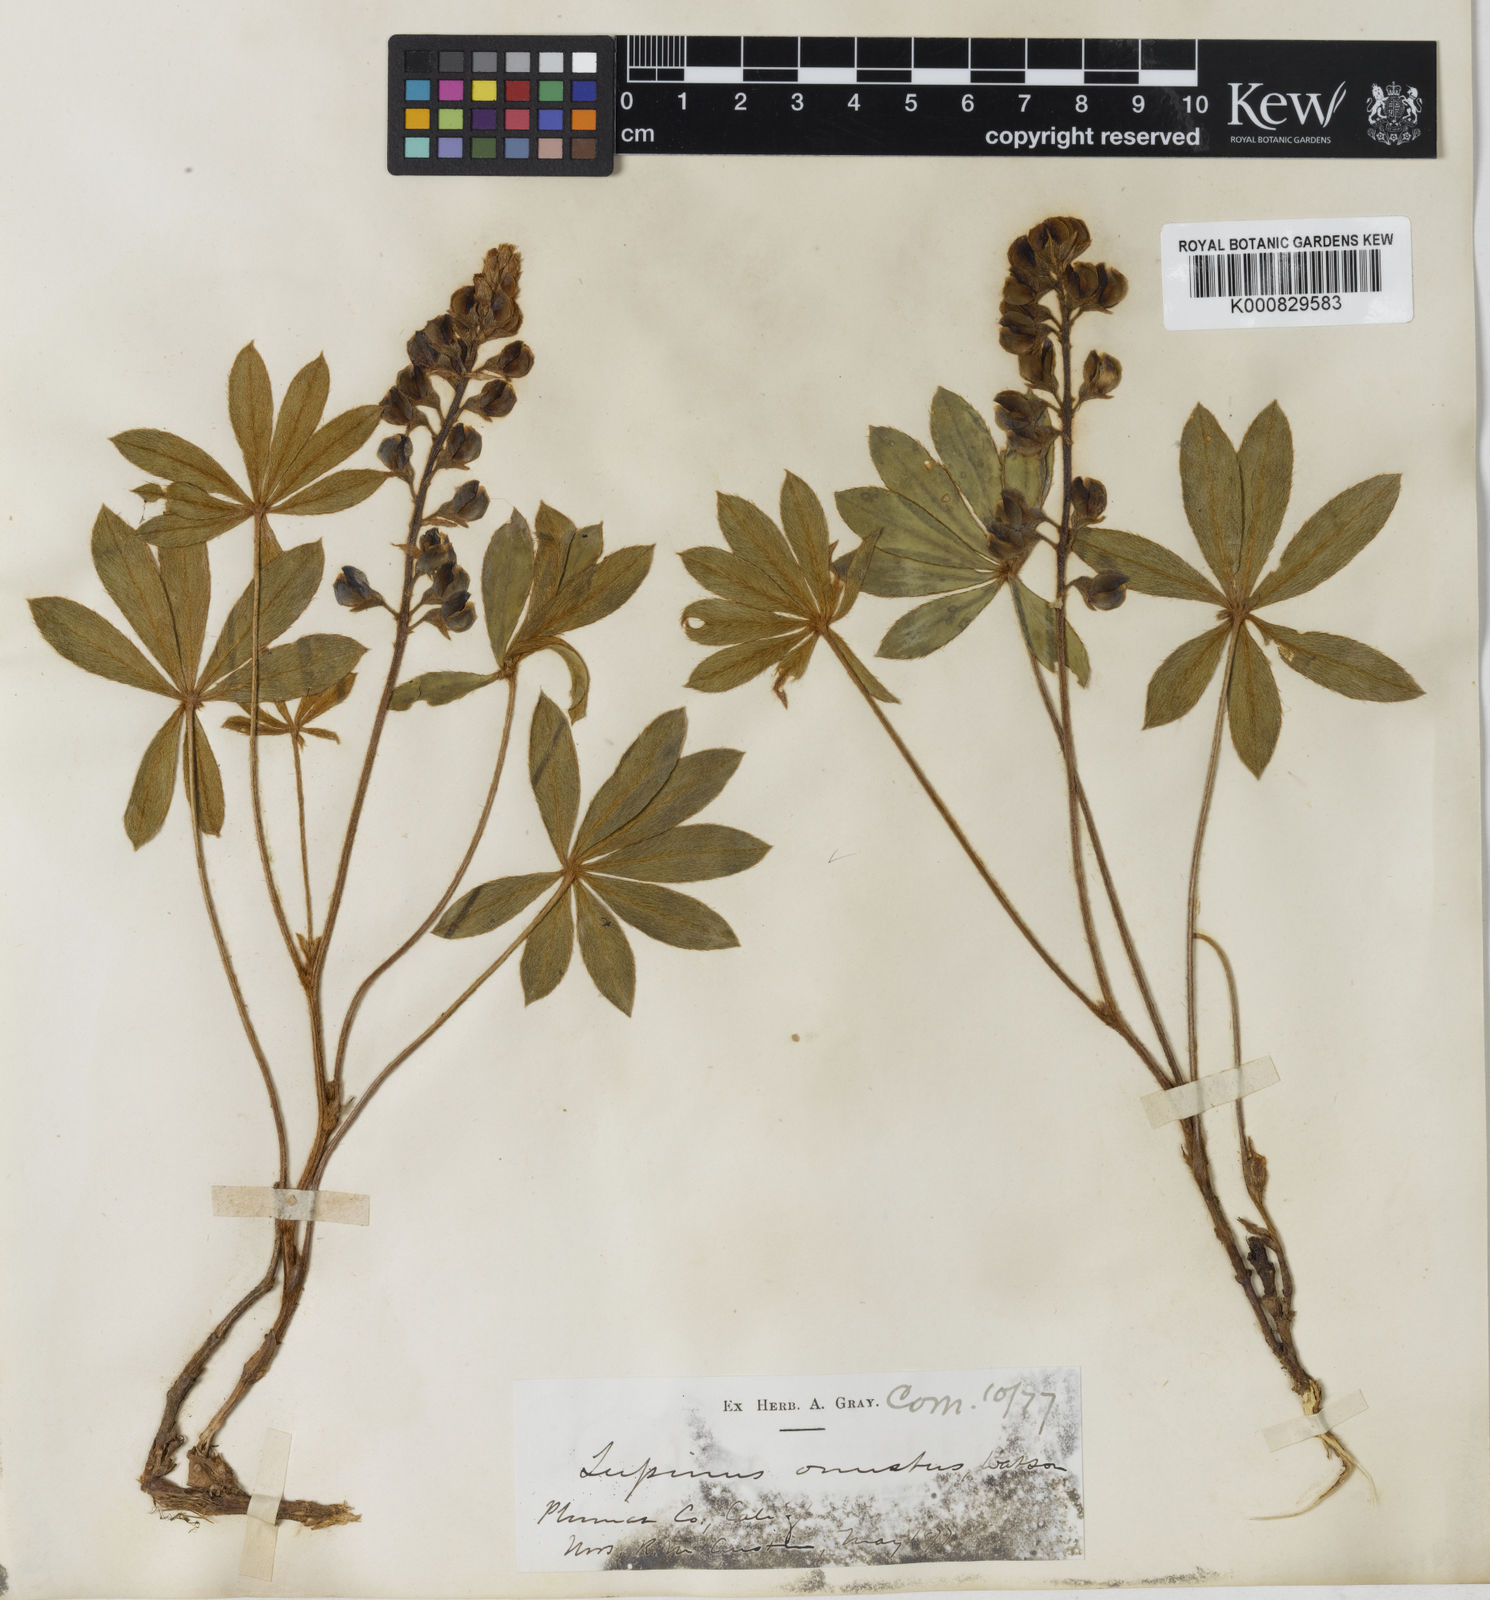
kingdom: Plantae
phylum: Tracheophyta
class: Magnoliopsida
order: Fabales
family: Fabaceae
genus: Lupinus
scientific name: Lupinus onustus
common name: Yellow pine lupine
